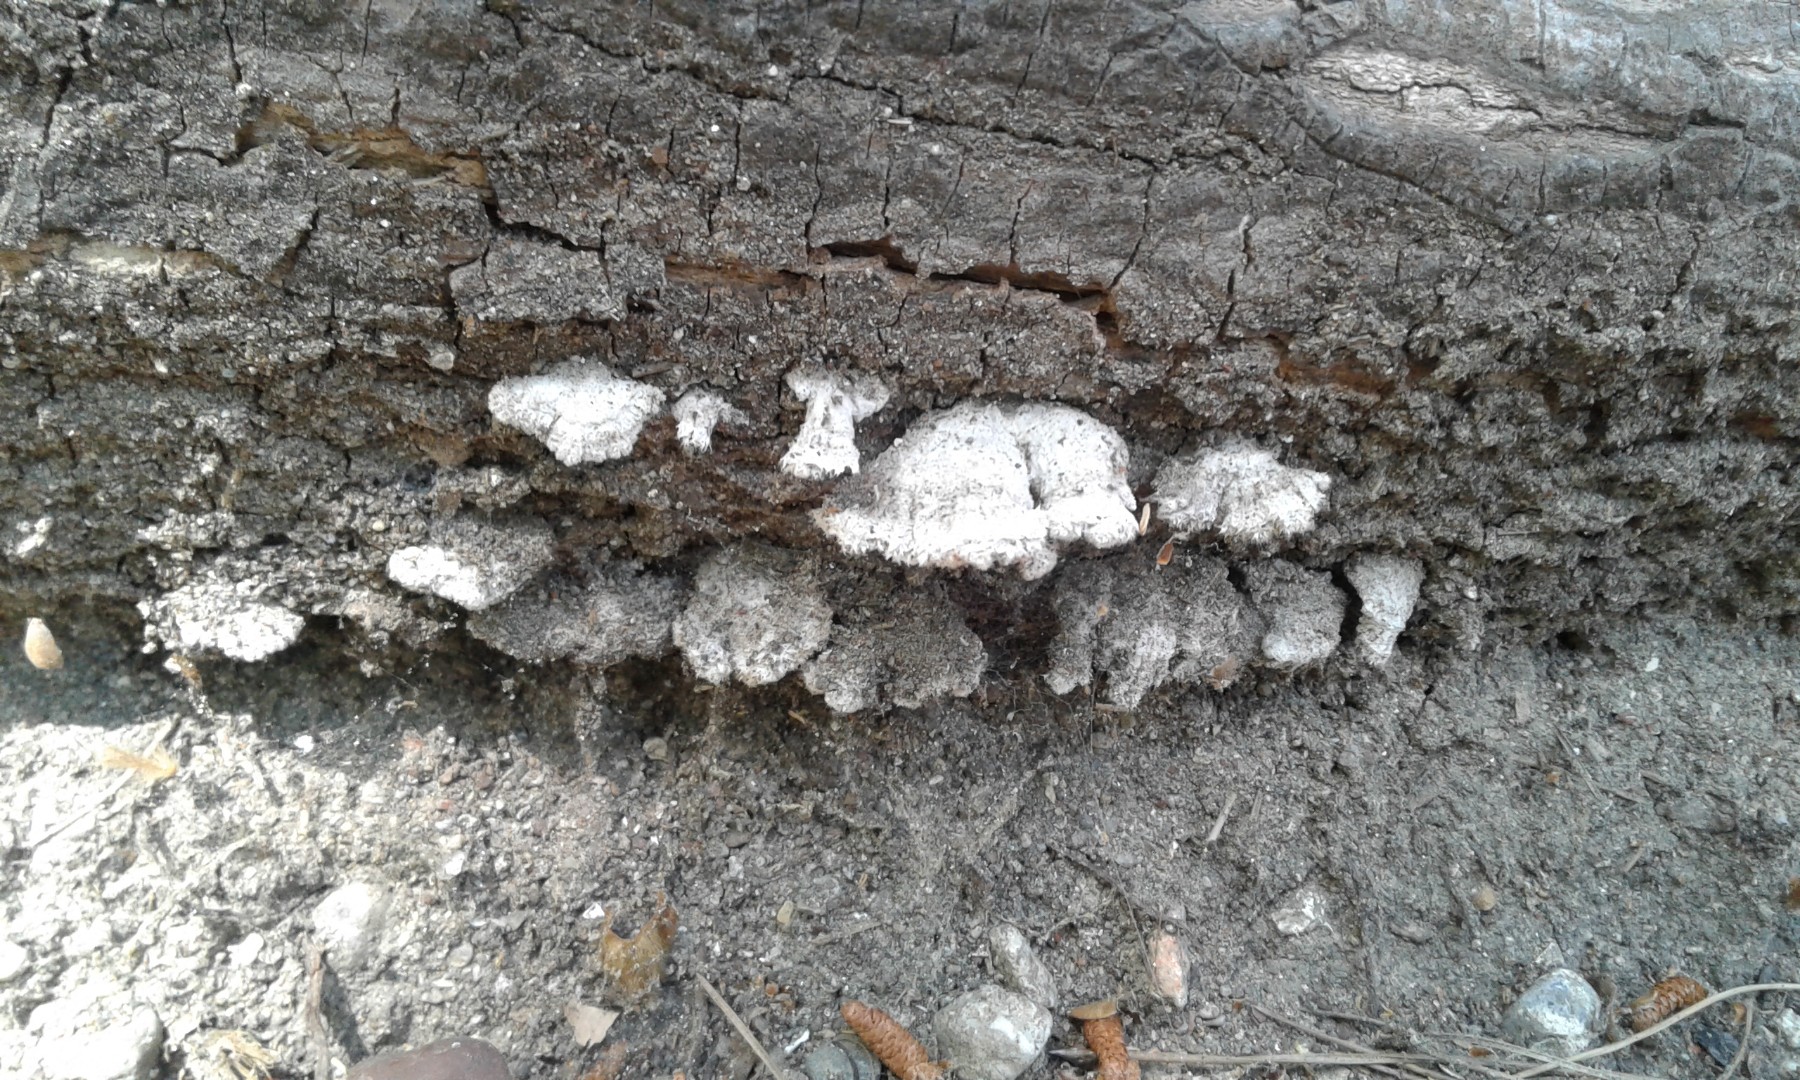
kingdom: Fungi
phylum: Basidiomycota
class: Agaricomycetes
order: Agaricales
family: Schizophyllaceae
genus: Schizophyllum
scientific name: Schizophyllum commune
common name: kløvblad
